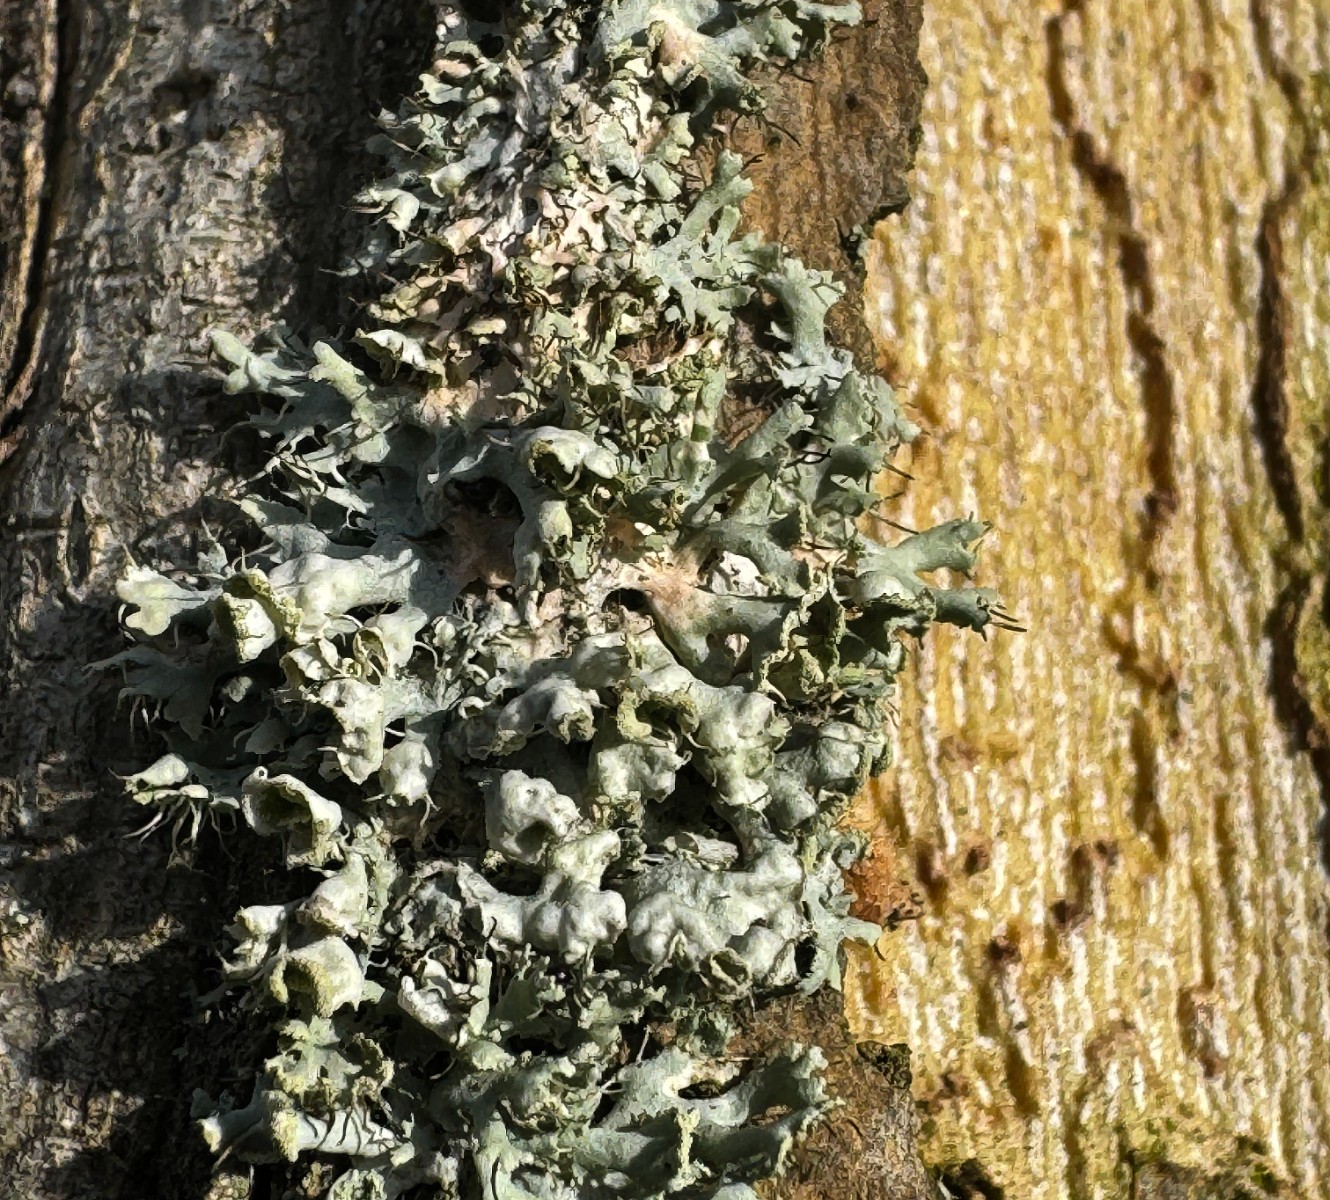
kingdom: Fungi
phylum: Ascomycota
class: Lecanoromycetes
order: Caliciales
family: Physciaceae
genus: Physcia
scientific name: Physcia
